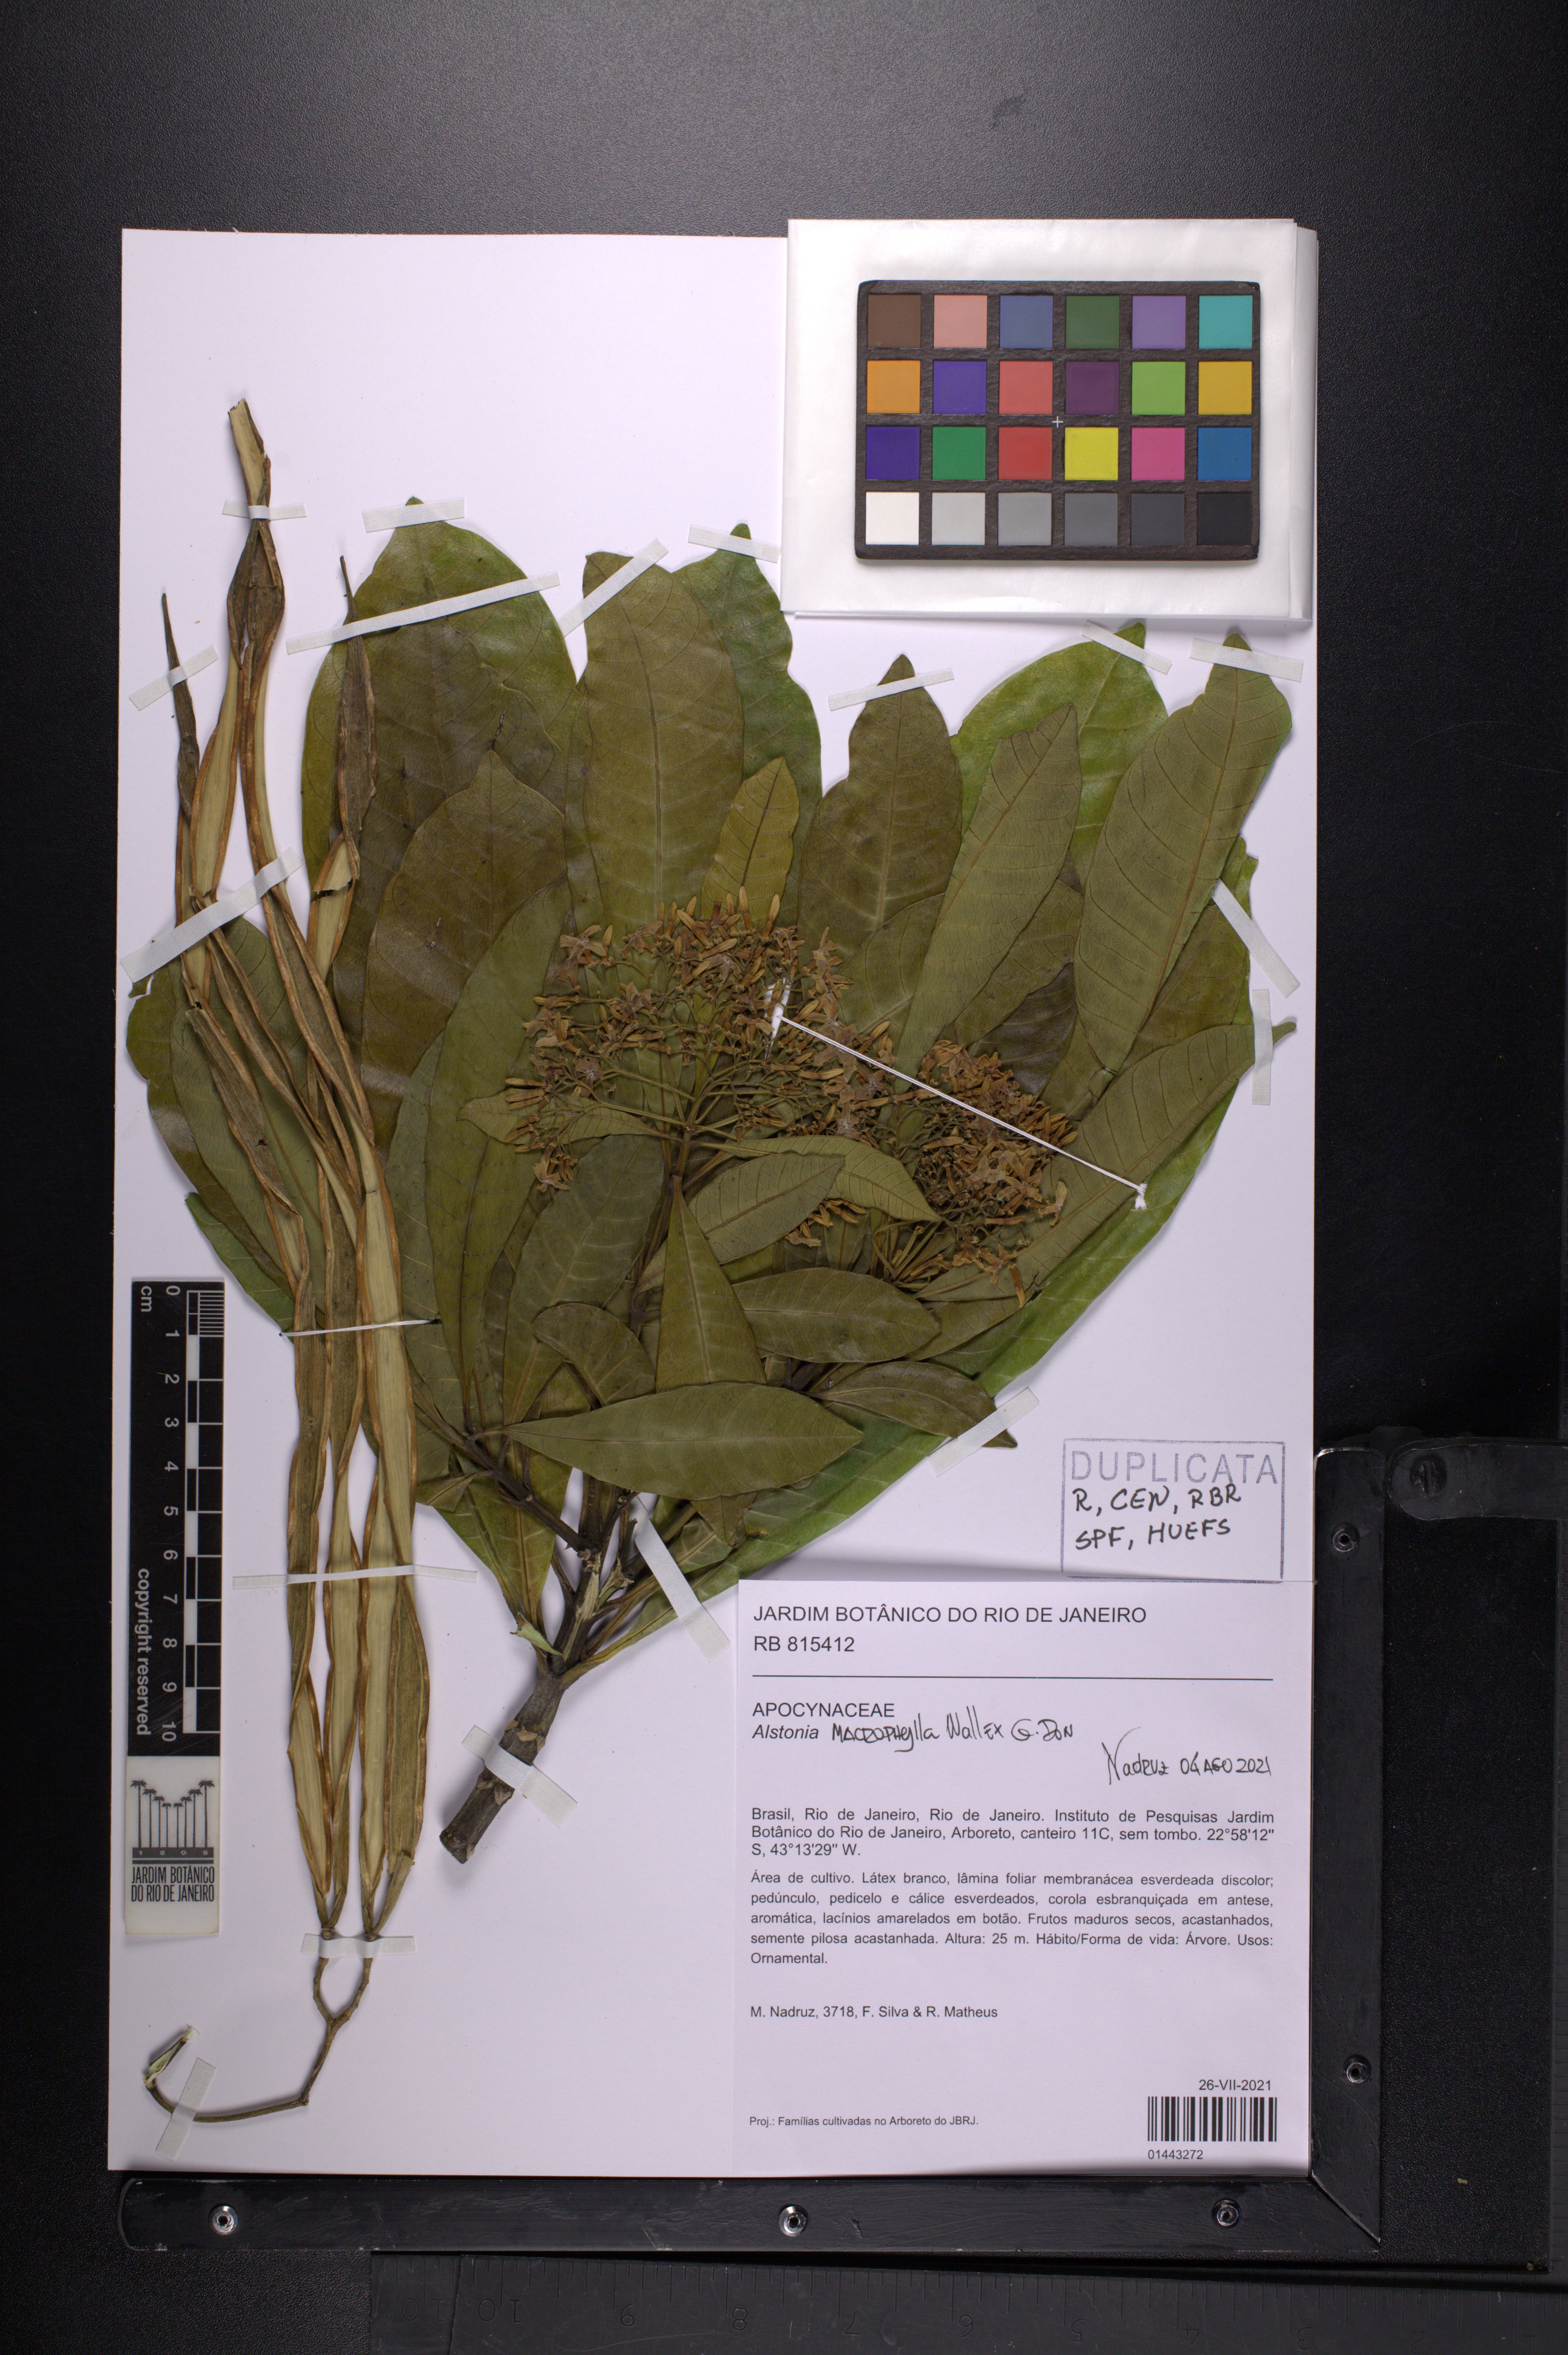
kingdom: Plantae
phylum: Tracheophyta
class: Magnoliopsida
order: Gentianales
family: Apocynaceae
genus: Alstonia
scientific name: Alstonia macrophylla
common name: Deviltree
